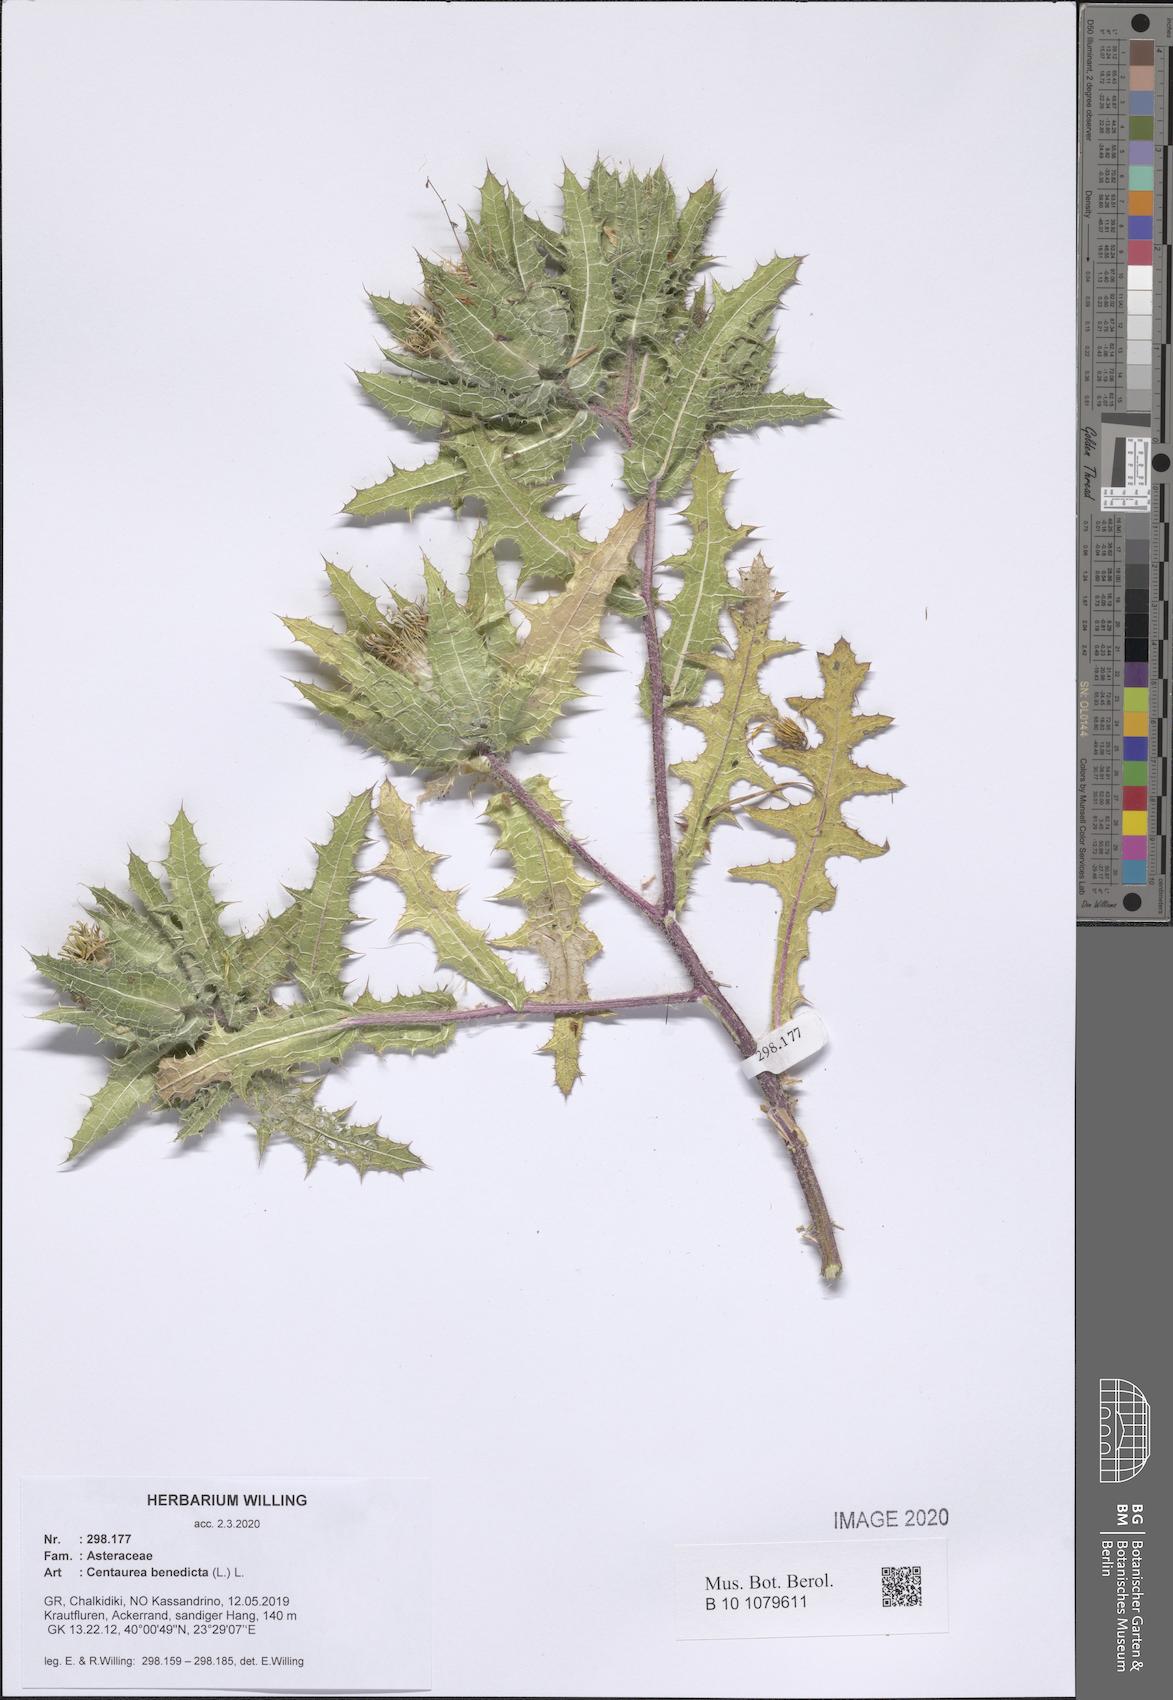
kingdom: Plantae
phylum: Tracheophyta
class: Magnoliopsida
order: Asterales
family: Asteraceae
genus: Centaurea
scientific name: Centaurea benedicta
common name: Blessed thistle
